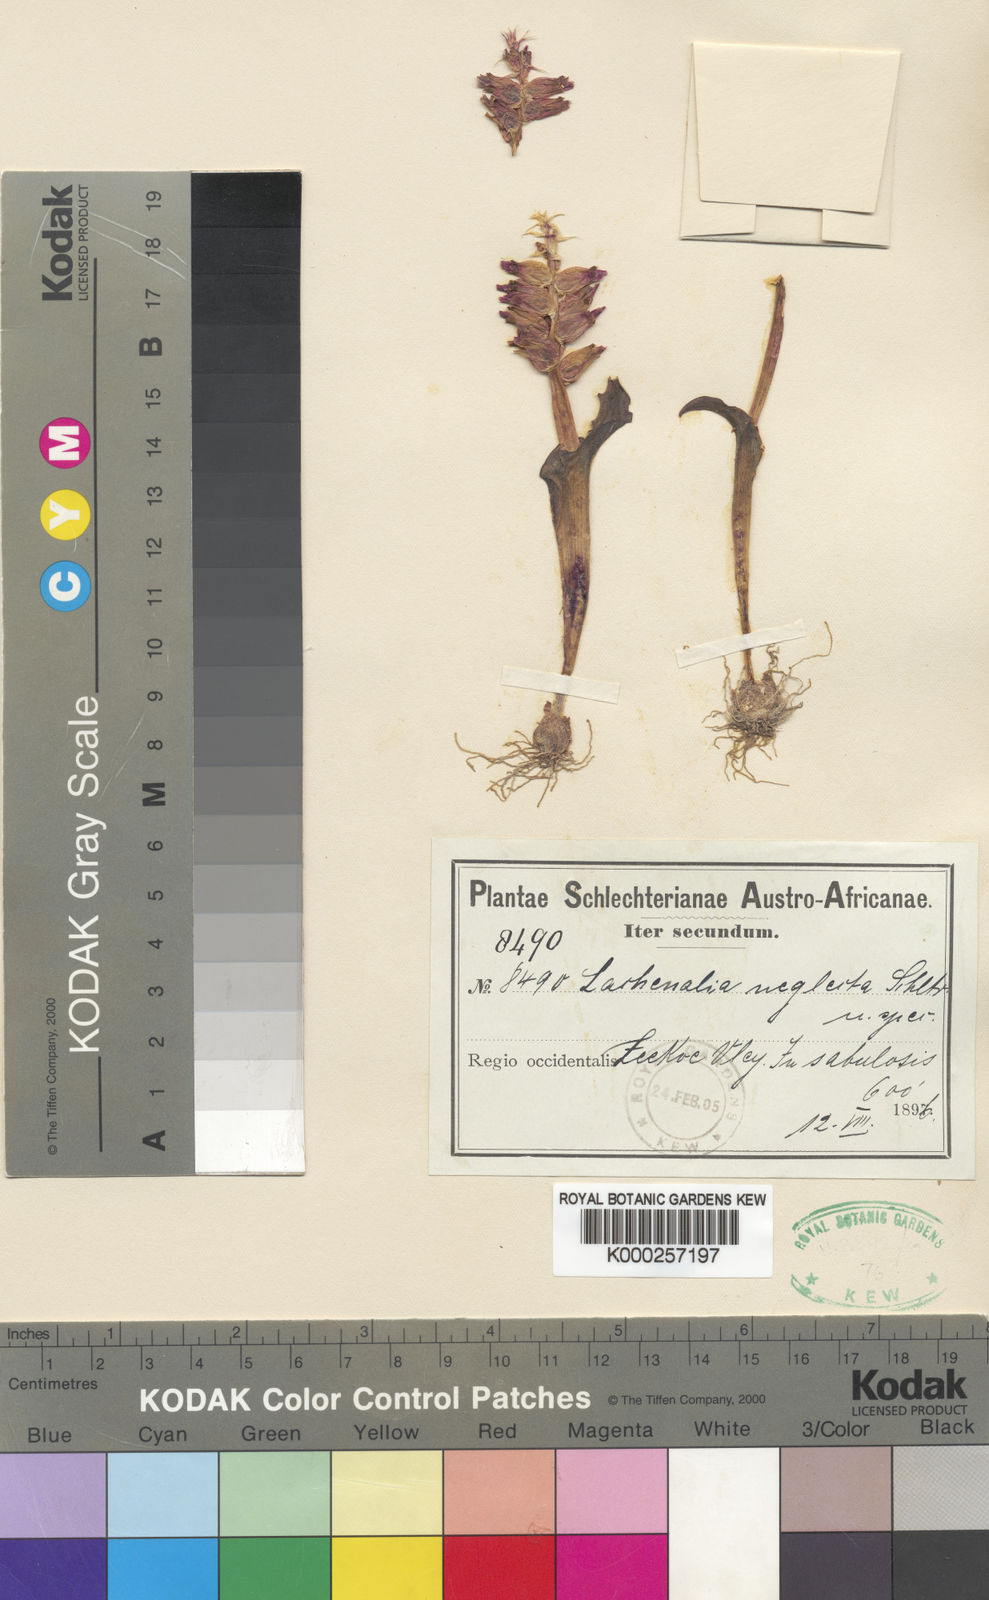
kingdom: Plantae
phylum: Tracheophyta
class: Liliopsida
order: Asparagales
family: Asparagaceae
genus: Lachenalia
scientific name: Lachenalia marginata
